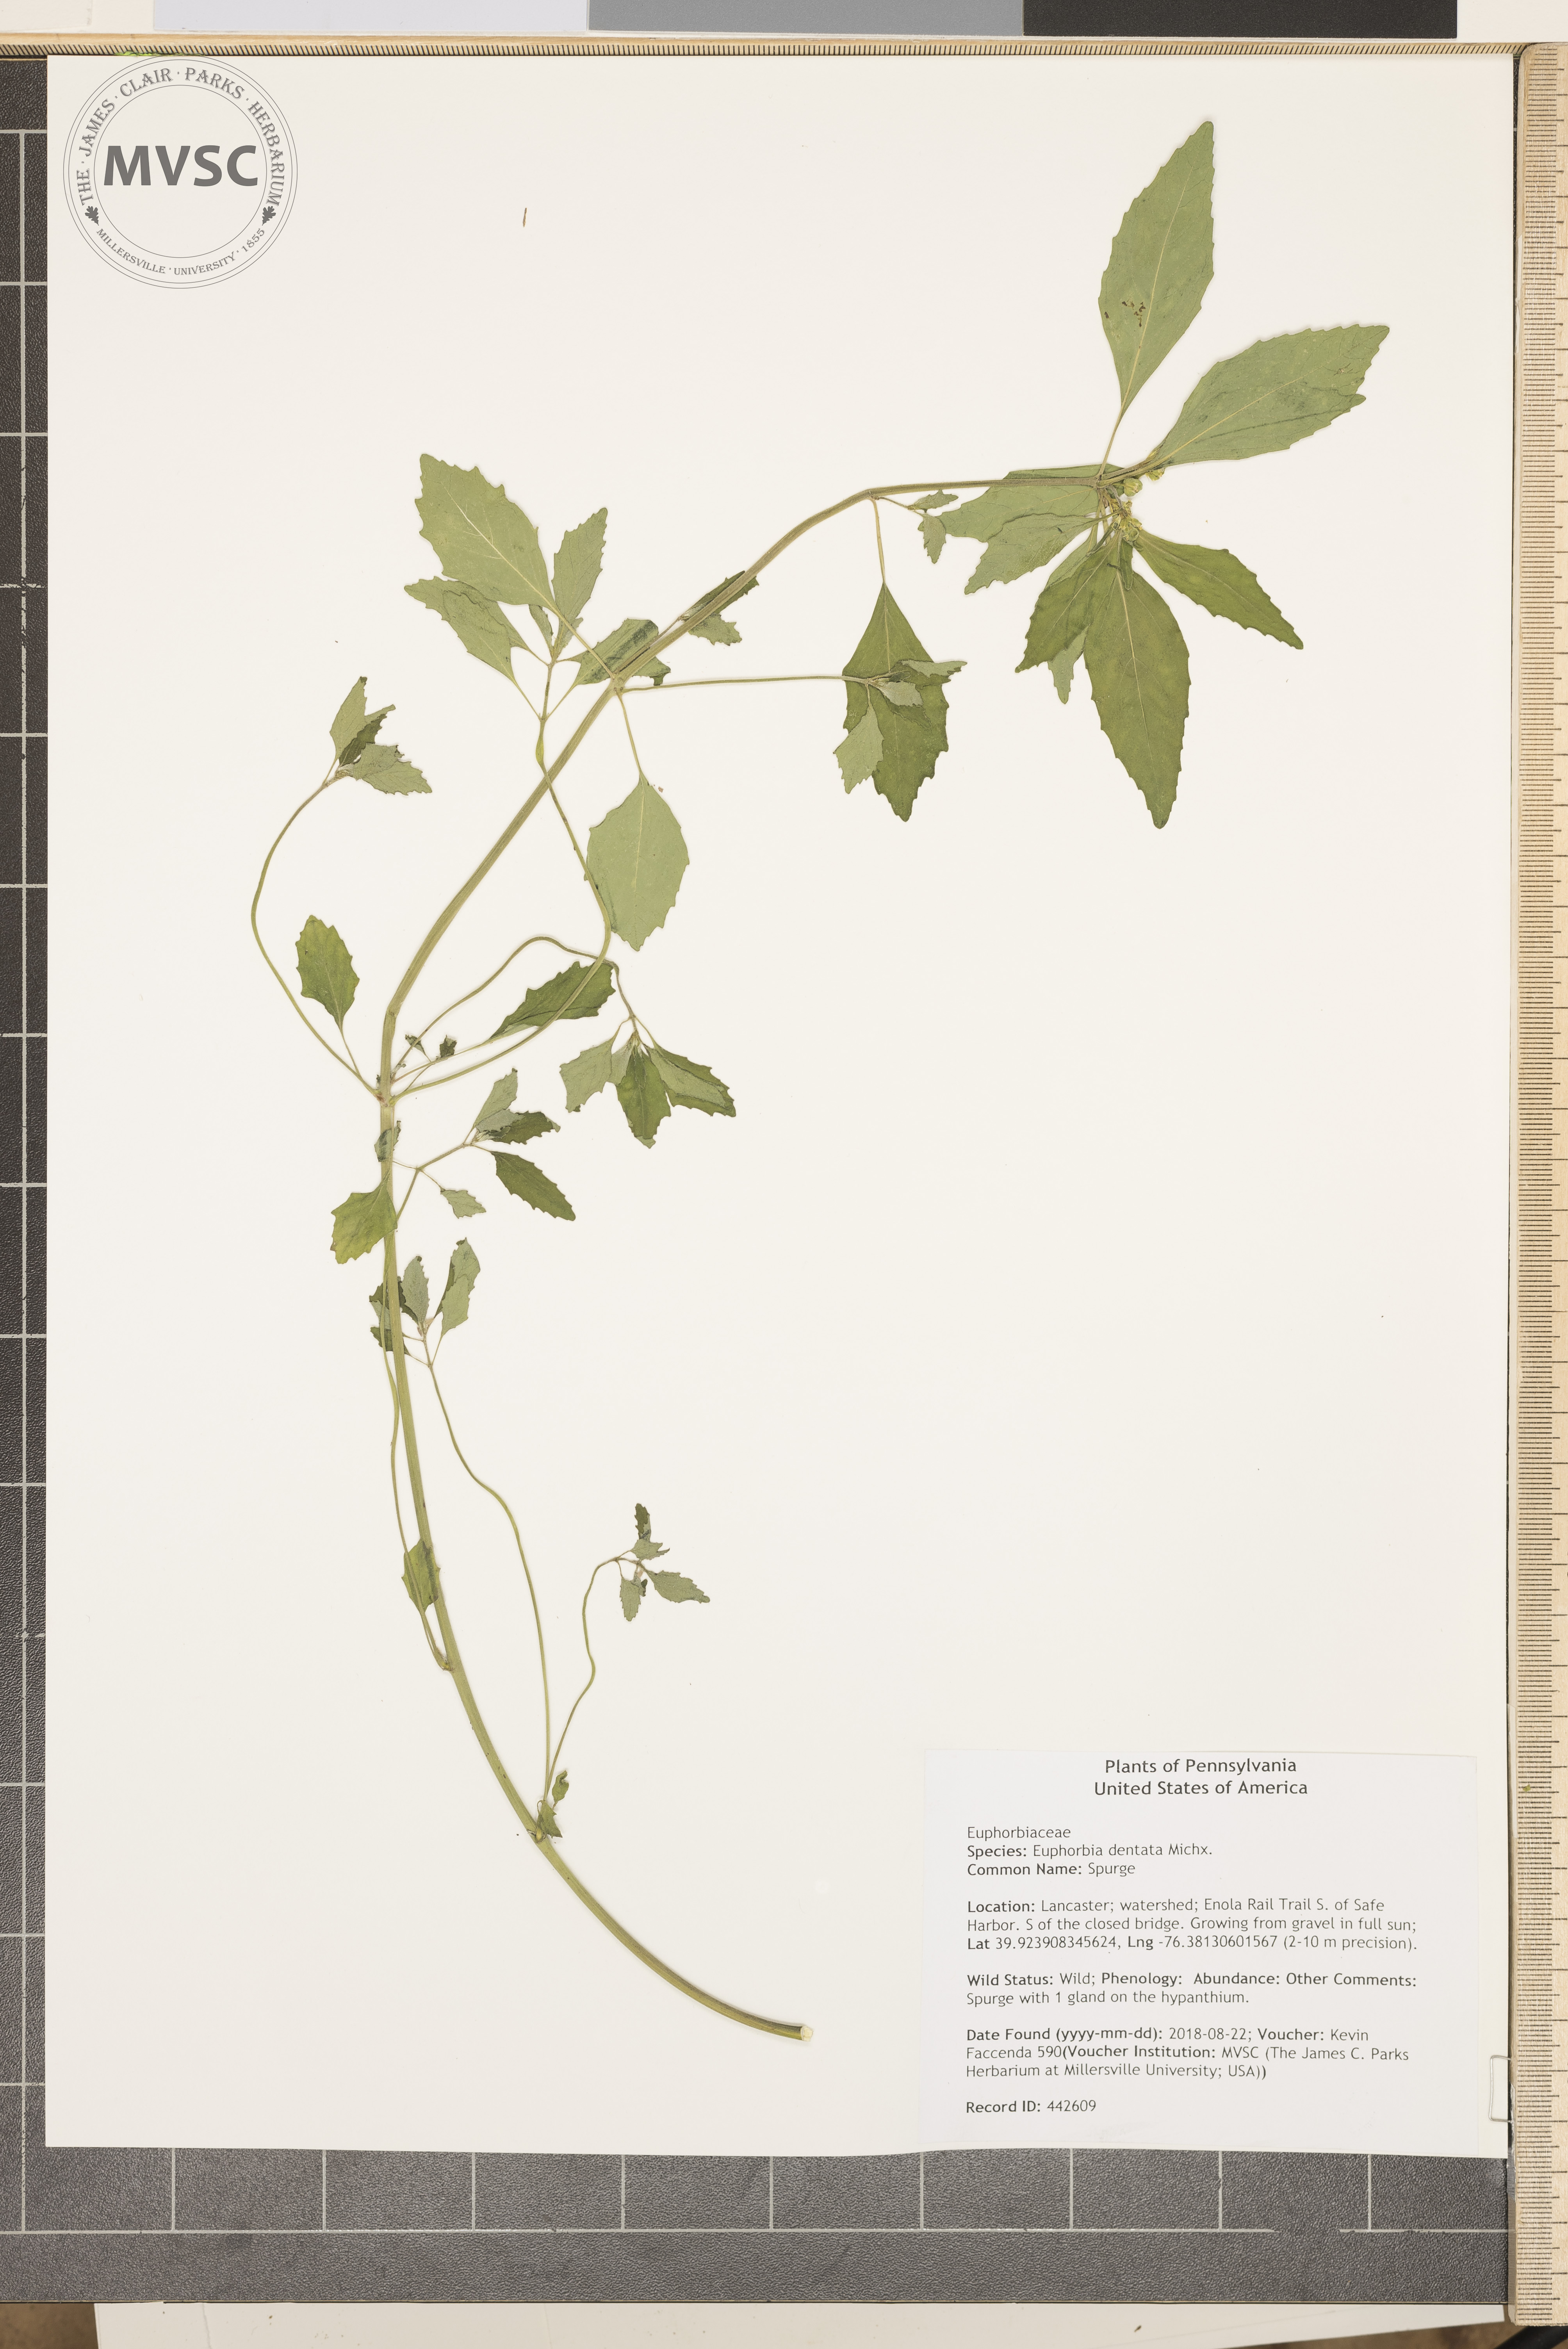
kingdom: Plantae
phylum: Tracheophyta
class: Magnoliopsida
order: Malpighiales
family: Euphorbiaceae
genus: Euphorbia
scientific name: Euphorbia davidii
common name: Spurge
